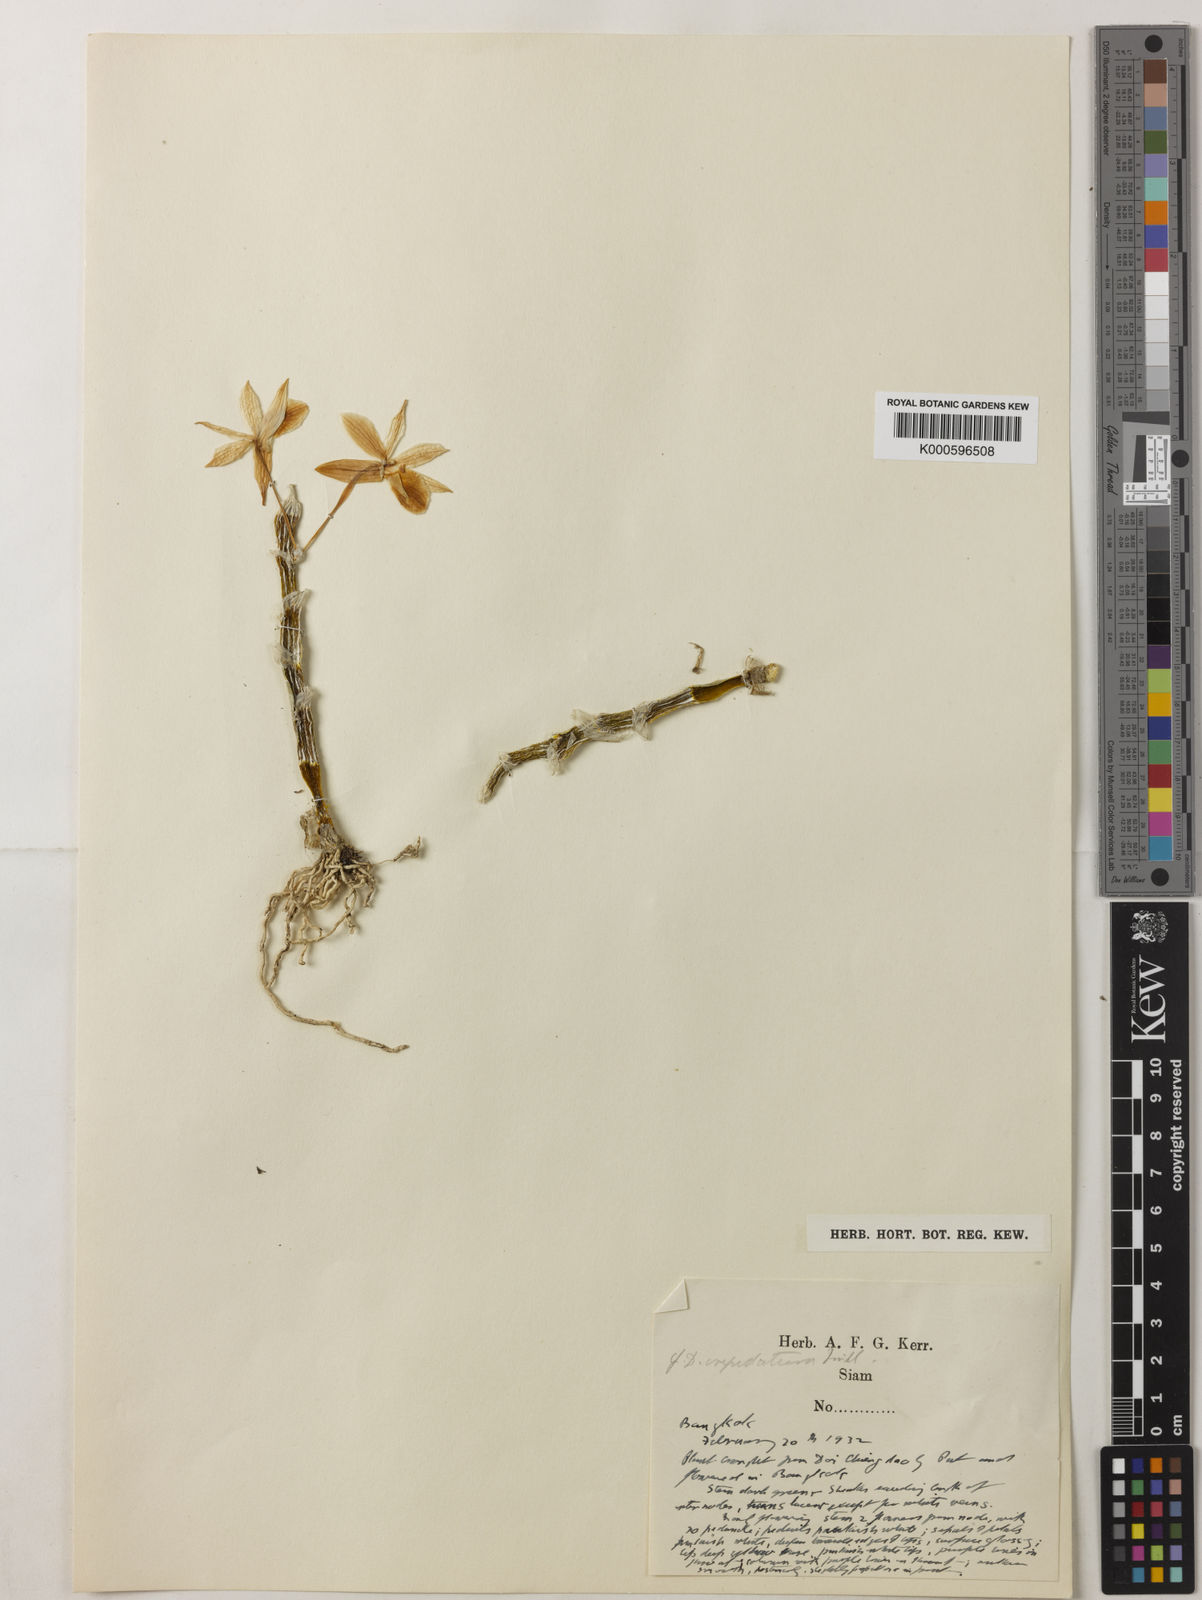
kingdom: Plantae
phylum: Tracheophyta
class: Liliopsida
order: Asparagales
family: Orchidaceae
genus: Dendrobium
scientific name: Dendrobium crepidatum
